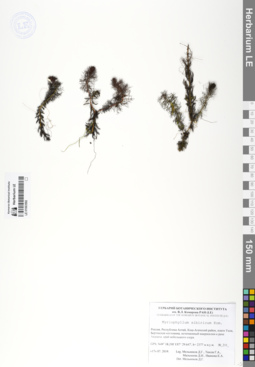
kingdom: Plantae
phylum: Tracheophyta
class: Magnoliopsida
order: Saxifragales
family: Haloragaceae
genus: Myriophyllum
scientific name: Myriophyllum sibiricum
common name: Siberian water-milfoil
